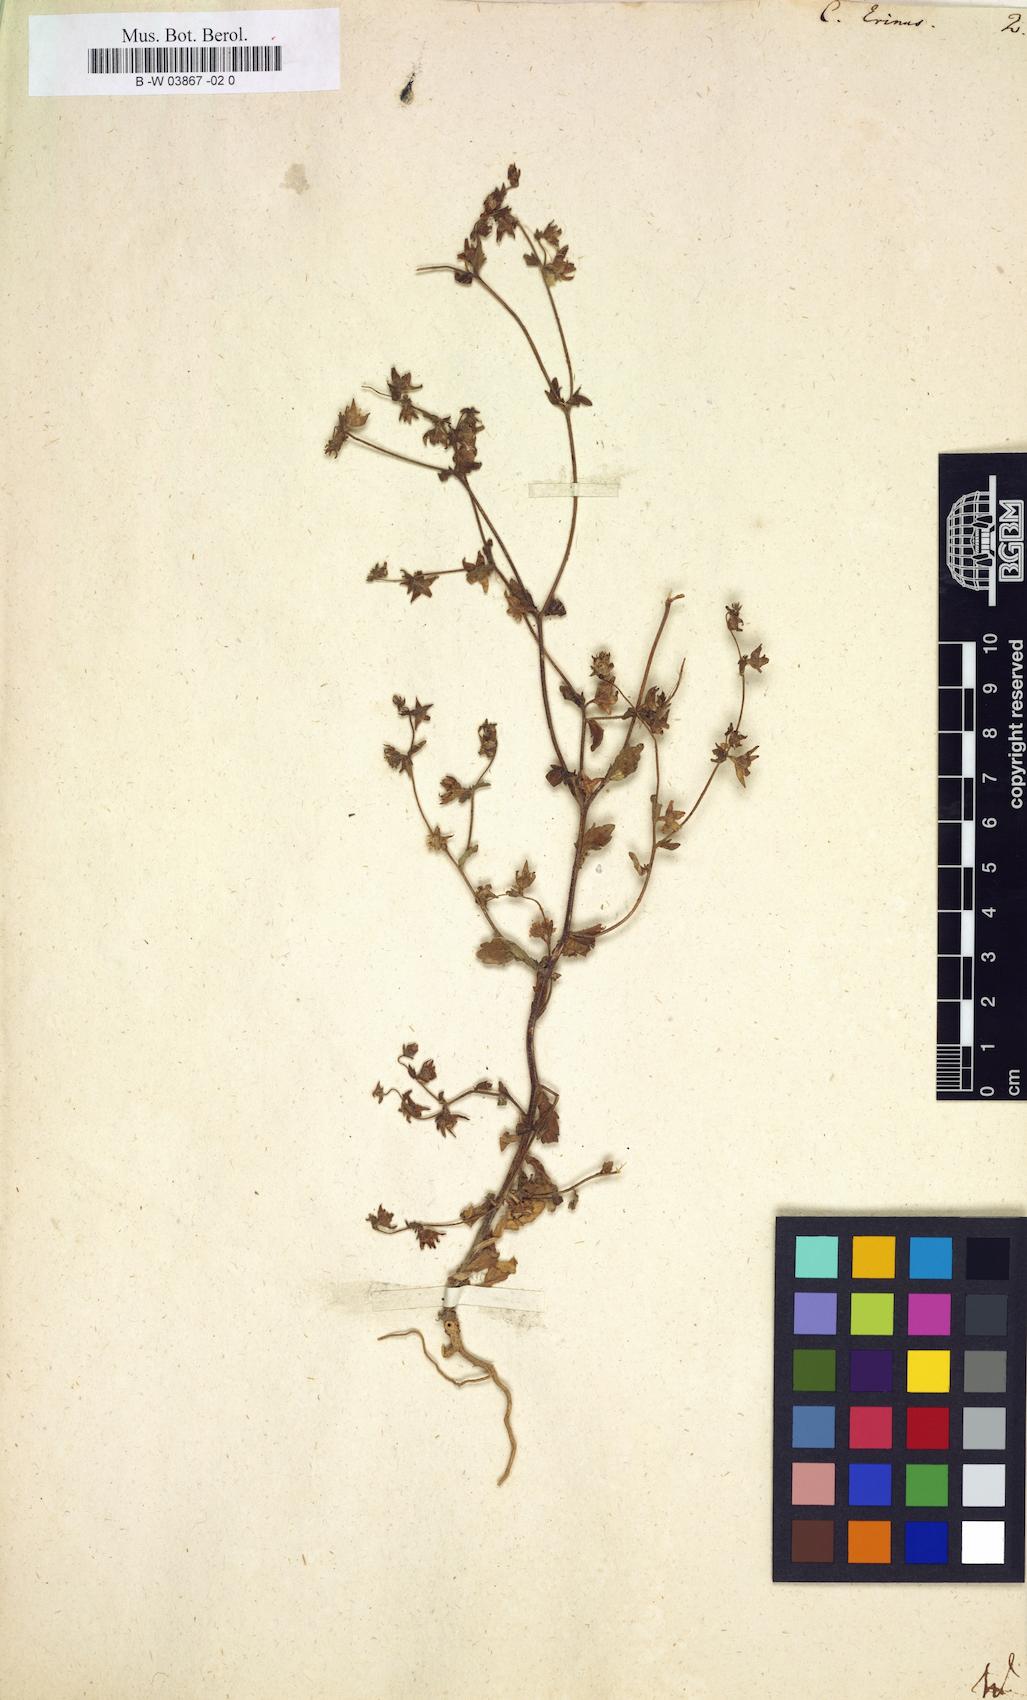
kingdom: Plantae
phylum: Tracheophyta
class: Magnoliopsida
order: Asterales
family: Campanulaceae
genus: Campanula
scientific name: Campanula erinus
